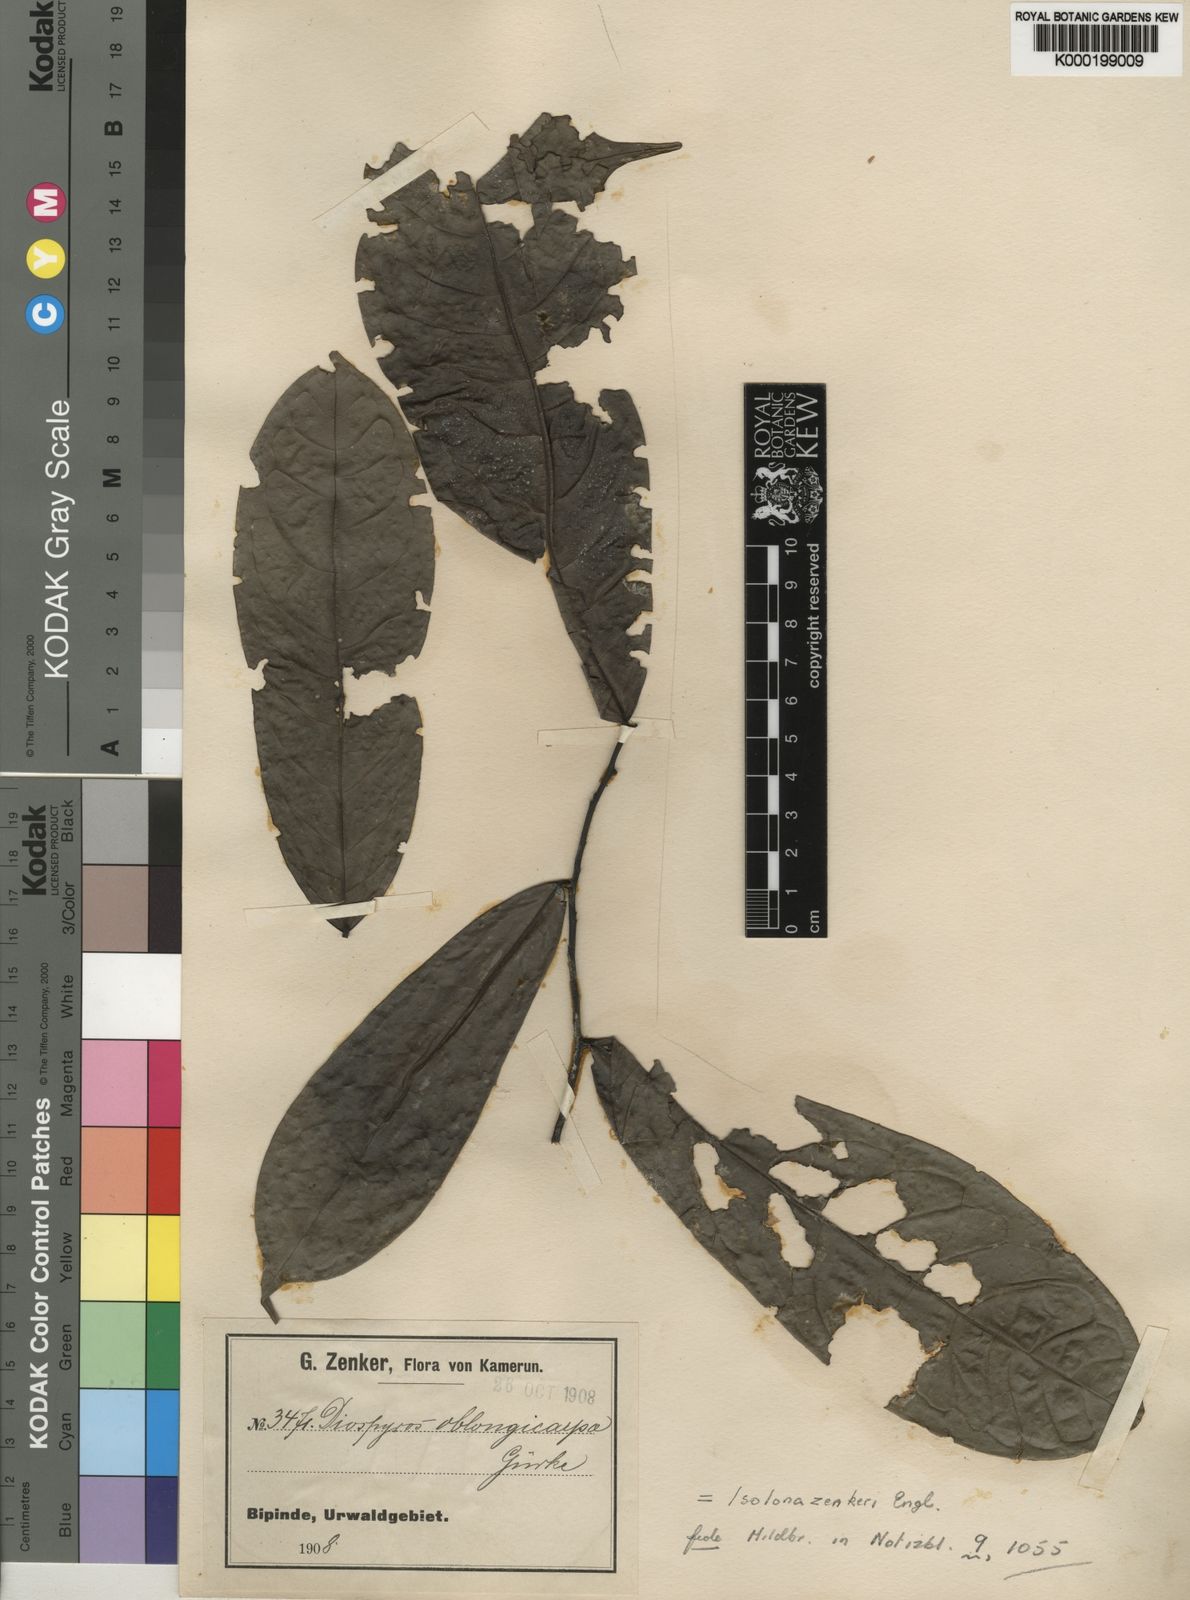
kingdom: Plantae
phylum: Tracheophyta
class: Magnoliopsida
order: Magnoliales
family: Annonaceae
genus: Isolona
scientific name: Isolona zenkeri
